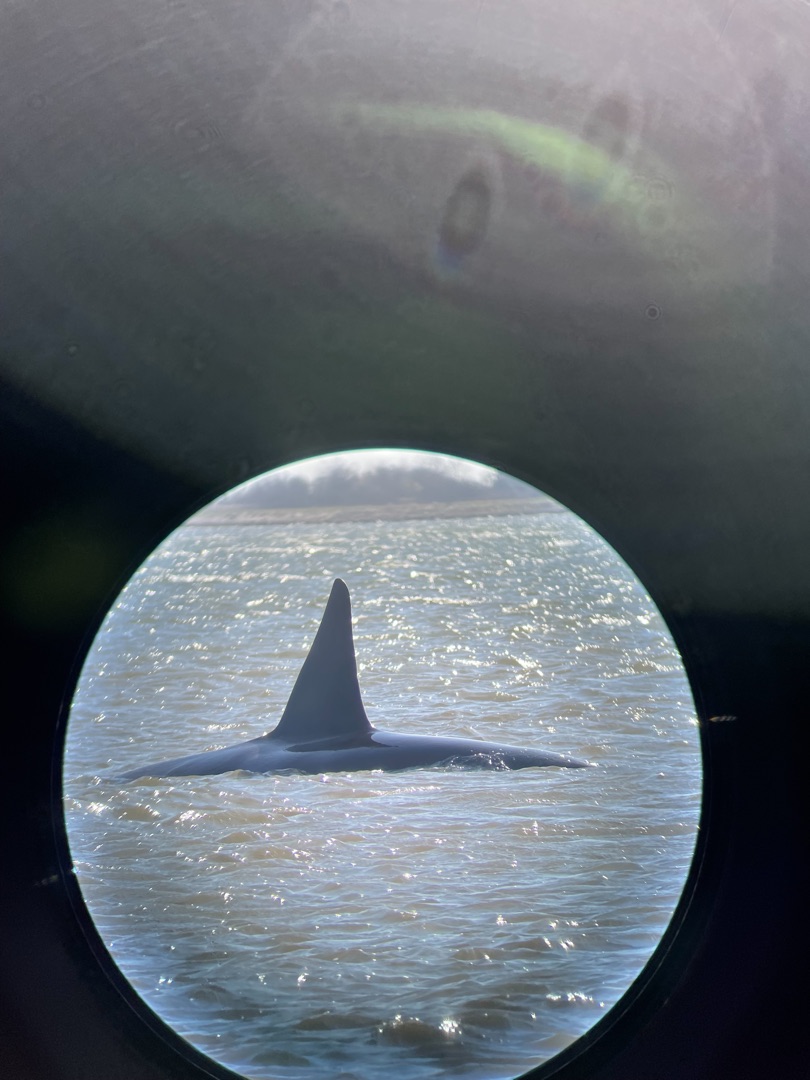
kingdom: Animalia
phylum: Chordata
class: Mammalia
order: Cetacea
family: Delphinidae
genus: Orcinus
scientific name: Orcinus orca
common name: Spækhugger
